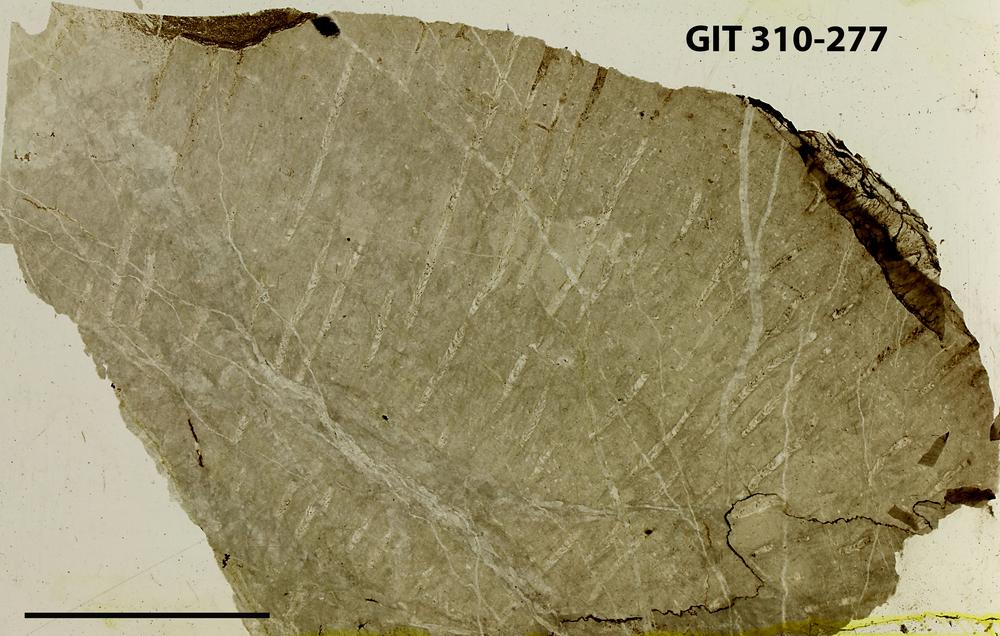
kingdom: Animalia
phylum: Porifera
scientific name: Porifera
